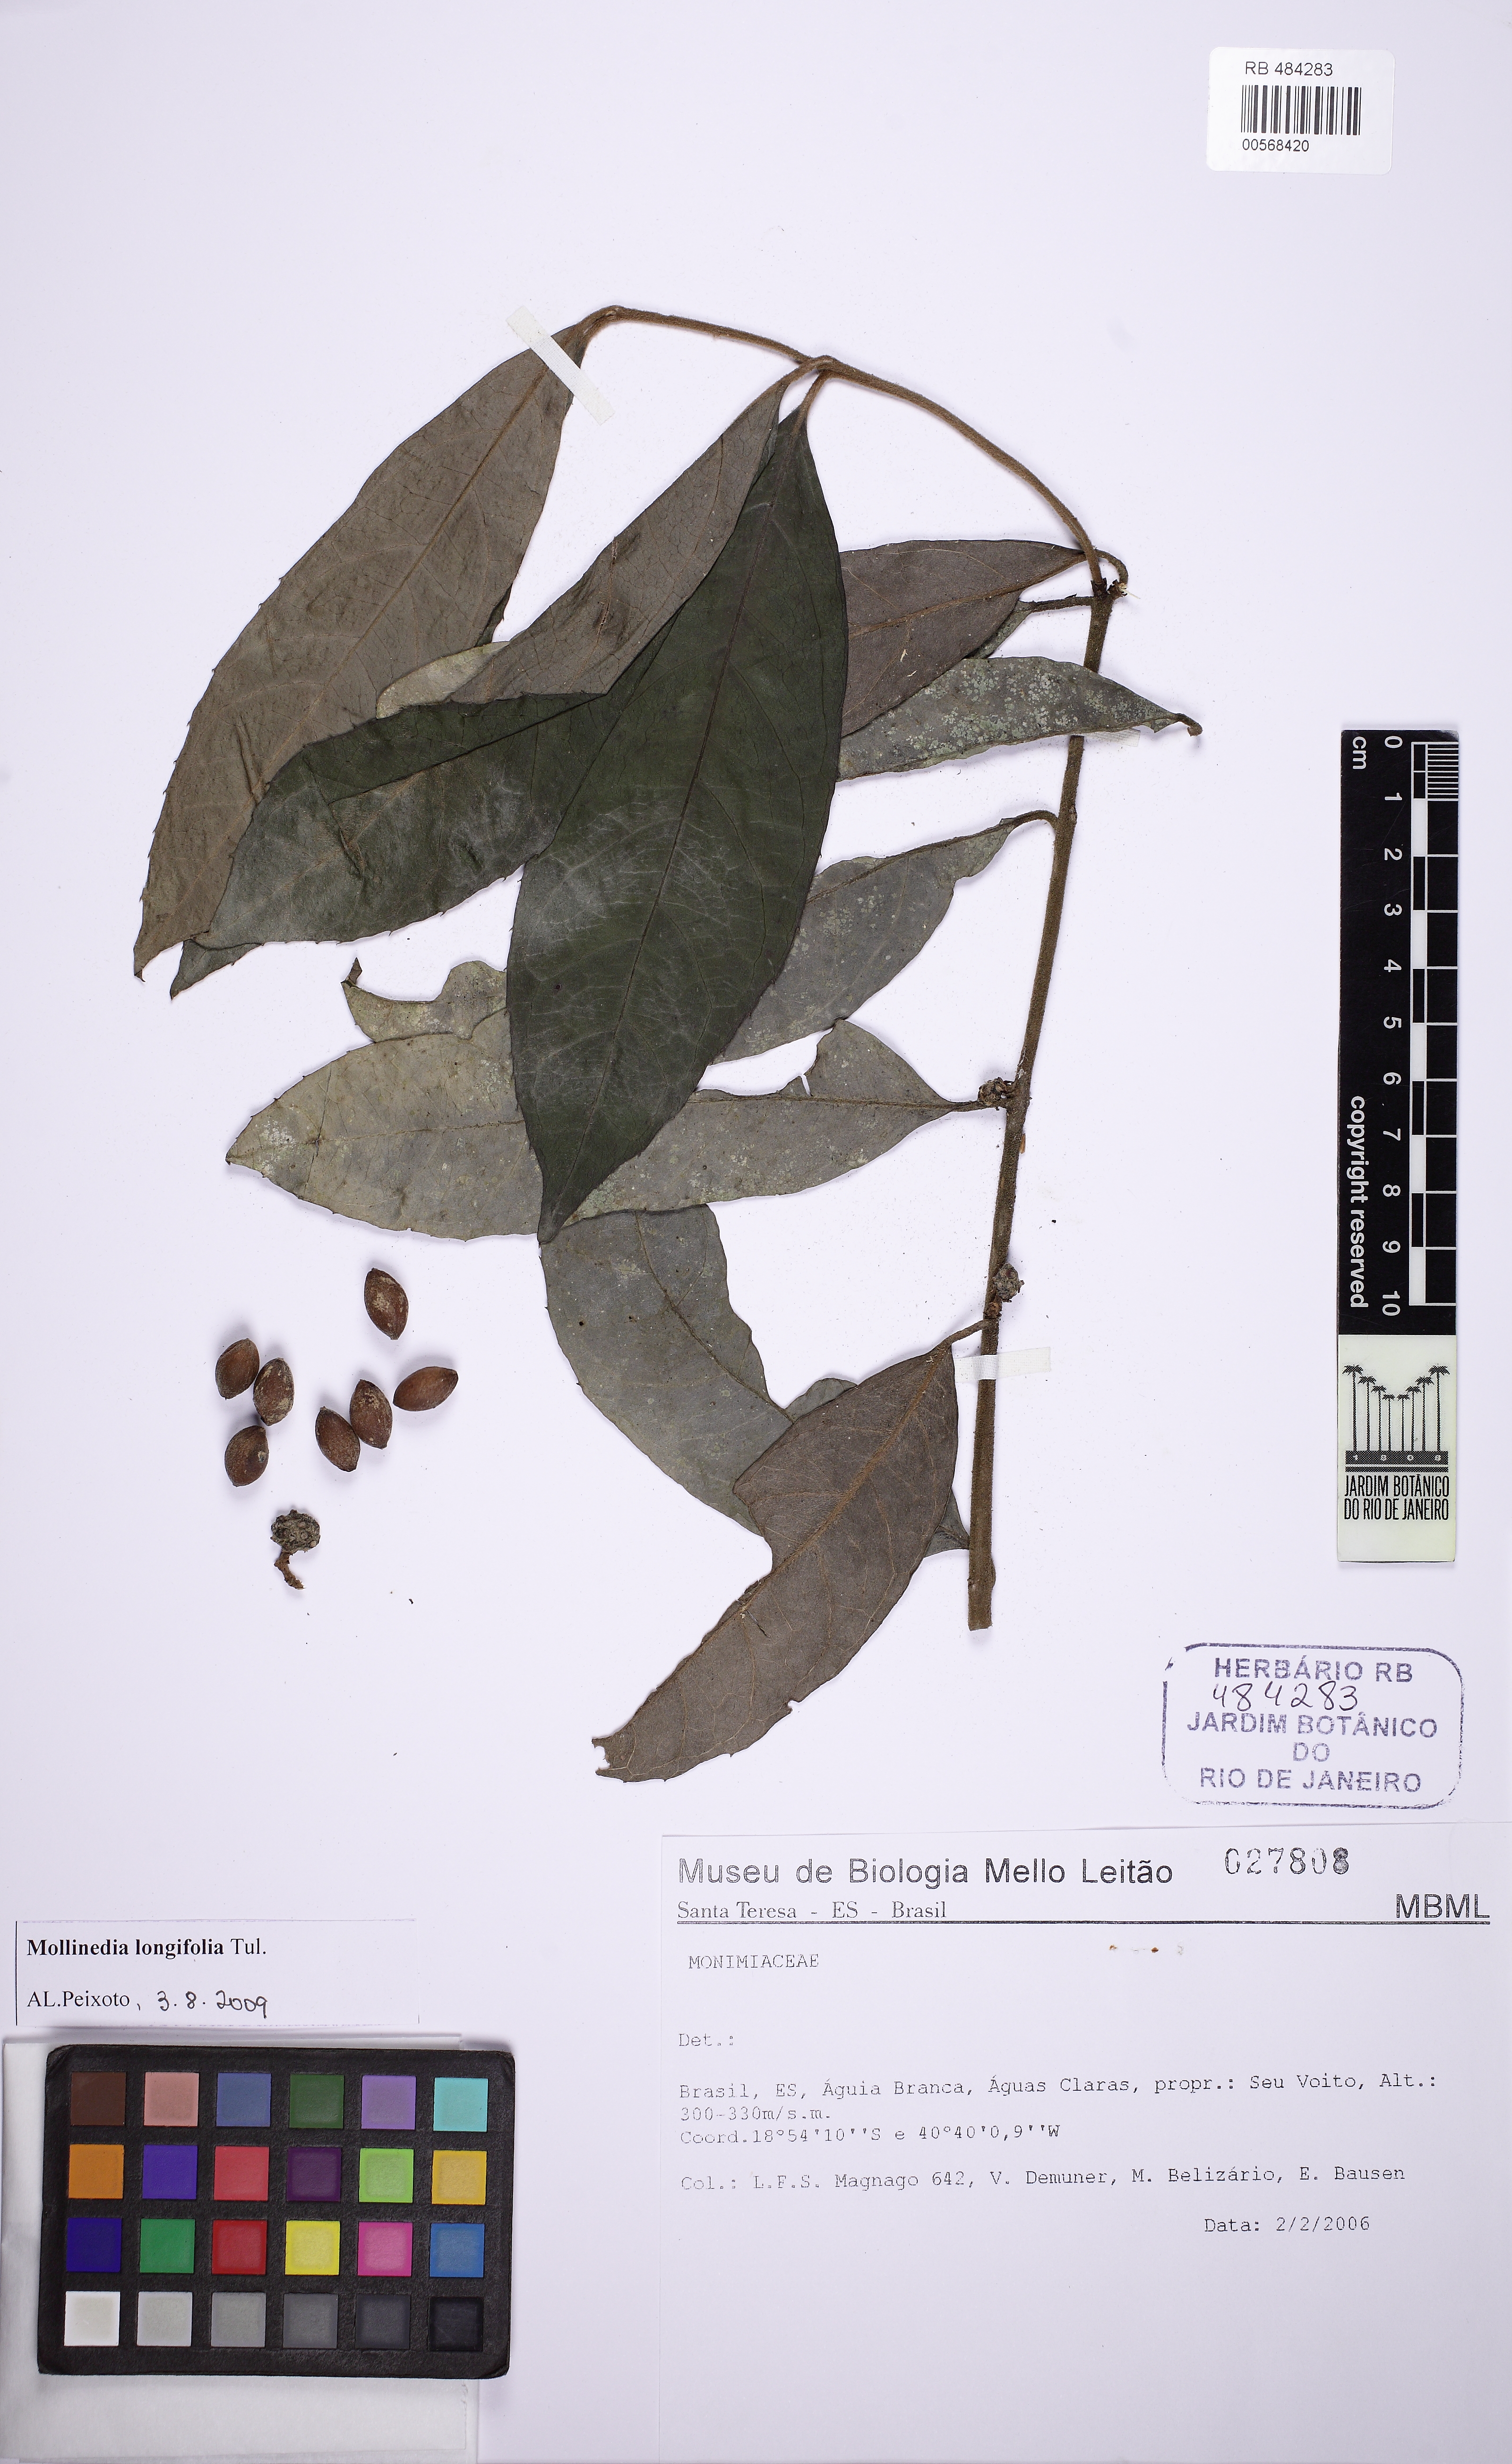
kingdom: Plantae
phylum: Tracheophyta
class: Magnoliopsida
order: Laurales
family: Monimiaceae
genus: Mollinedia
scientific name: Mollinedia longifolia
